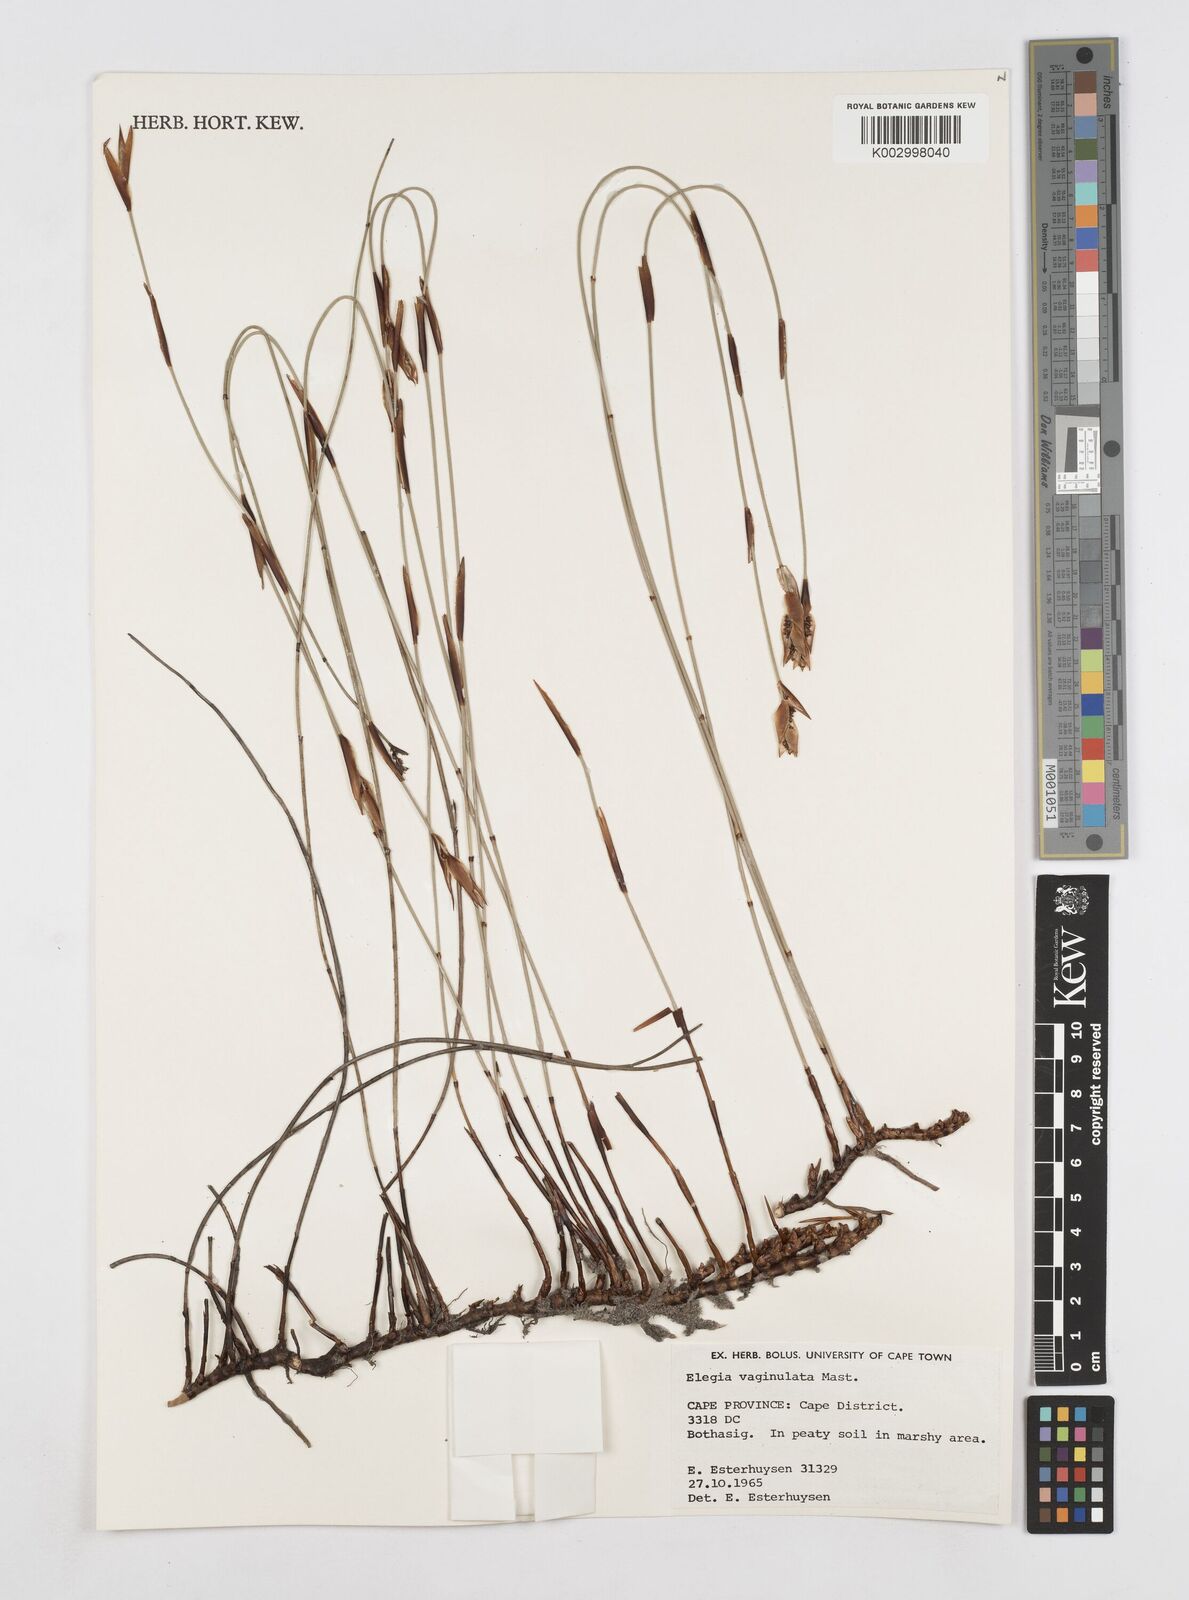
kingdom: Plantae
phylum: Tracheophyta
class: Liliopsida
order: Poales
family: Restionaceae
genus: Elegia
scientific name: Elegia vaginulata
